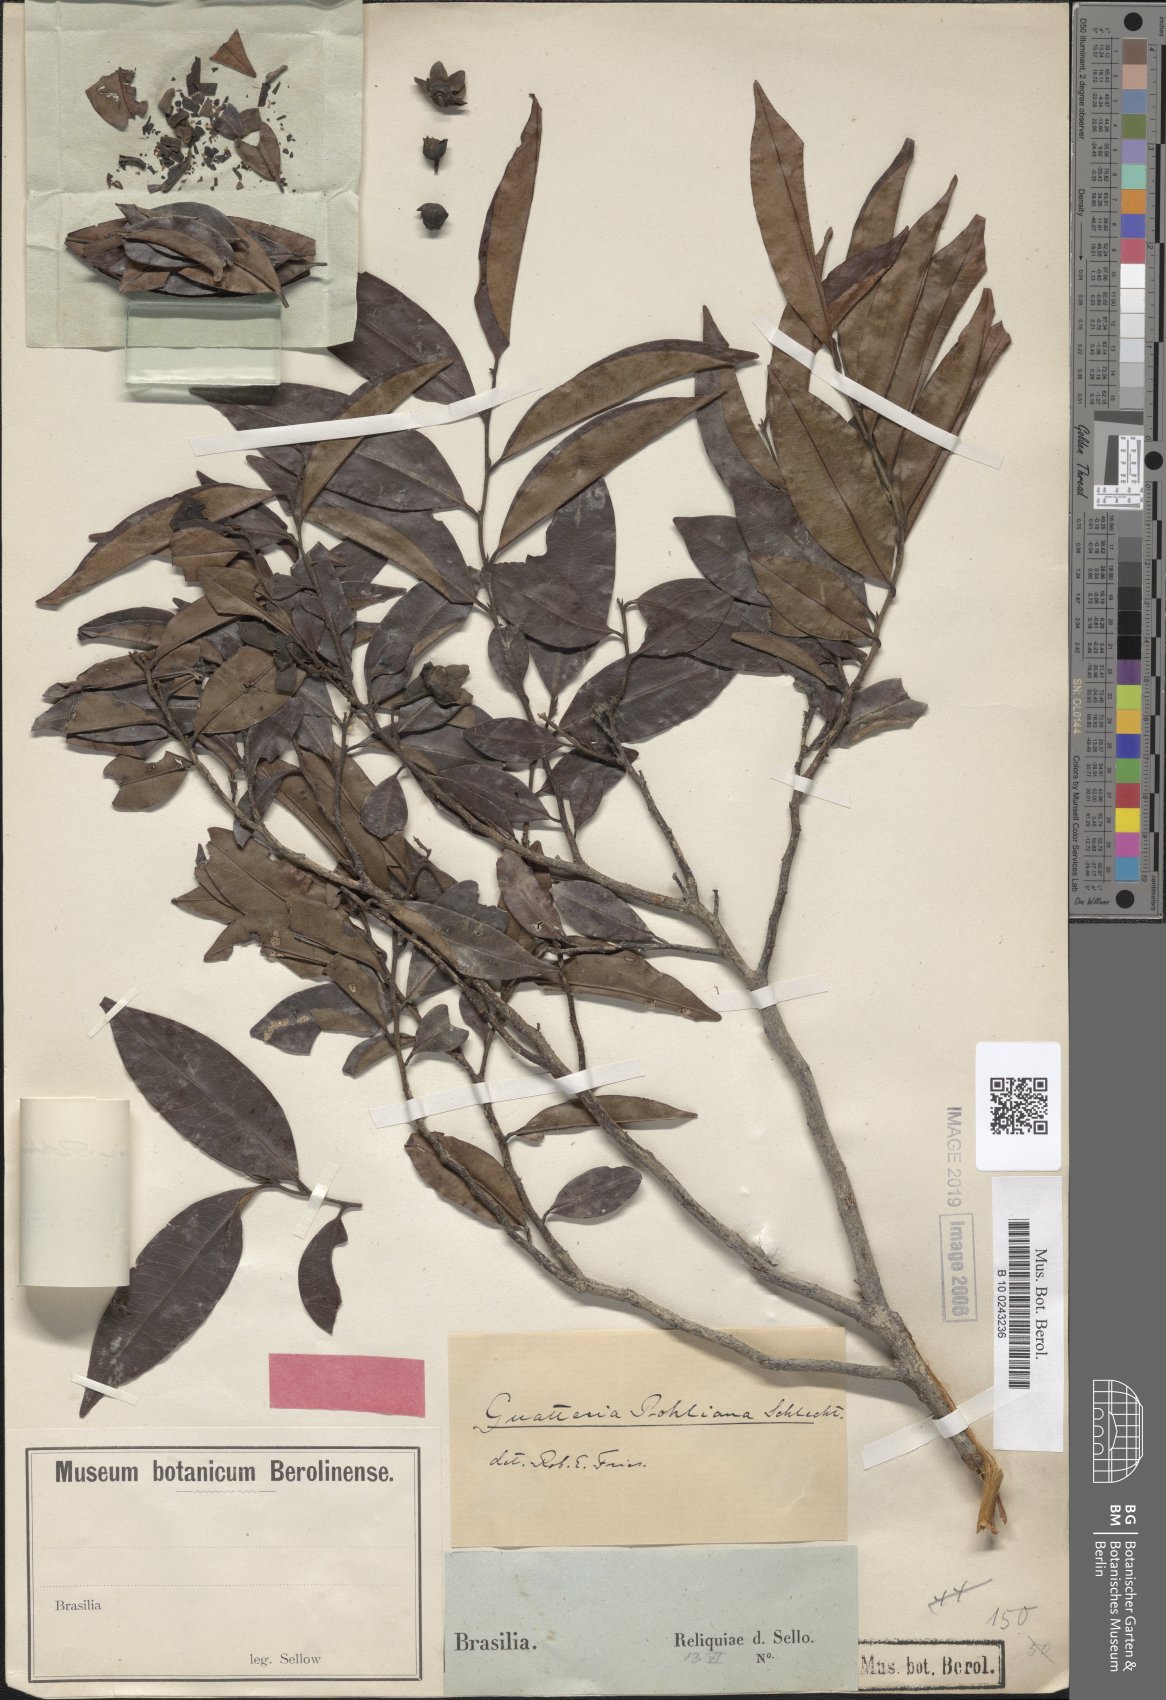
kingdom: Plantae
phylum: Tracheophyta
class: Magnoliopsida
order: Magnoliales
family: Annonaceae
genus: Guatteria
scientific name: Guatteria pohliana
